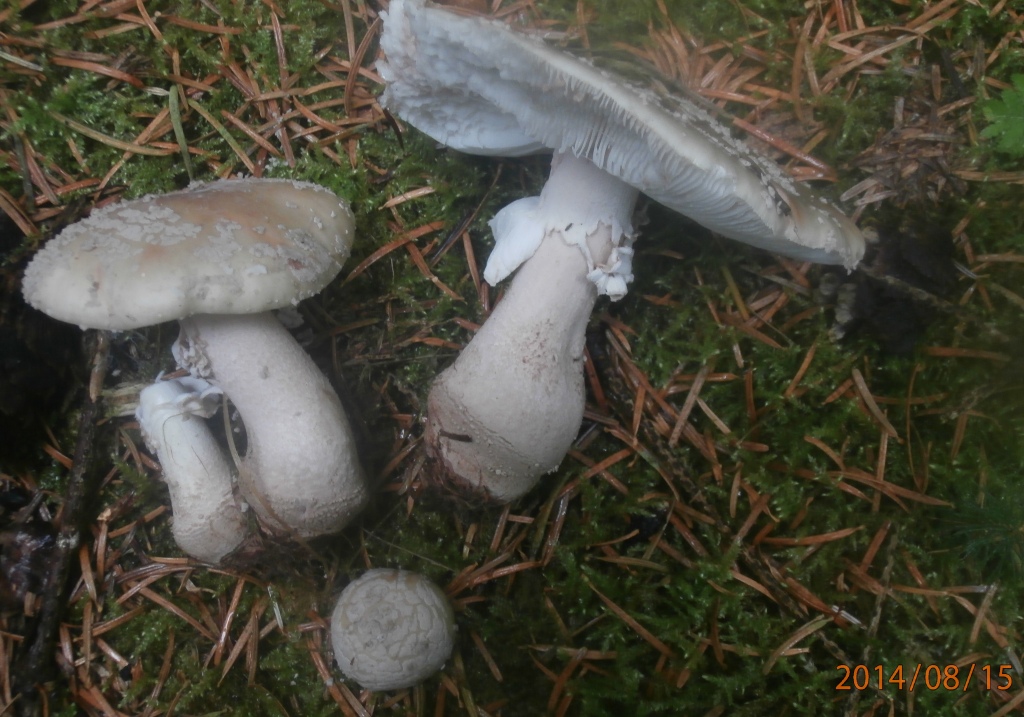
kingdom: Fungi
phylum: Basidiomycota
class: Agaricomycetes
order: Agaricales
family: Amanitaceae
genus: Amanita
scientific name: Amanita rubescens
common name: rødmende fluesvamp
